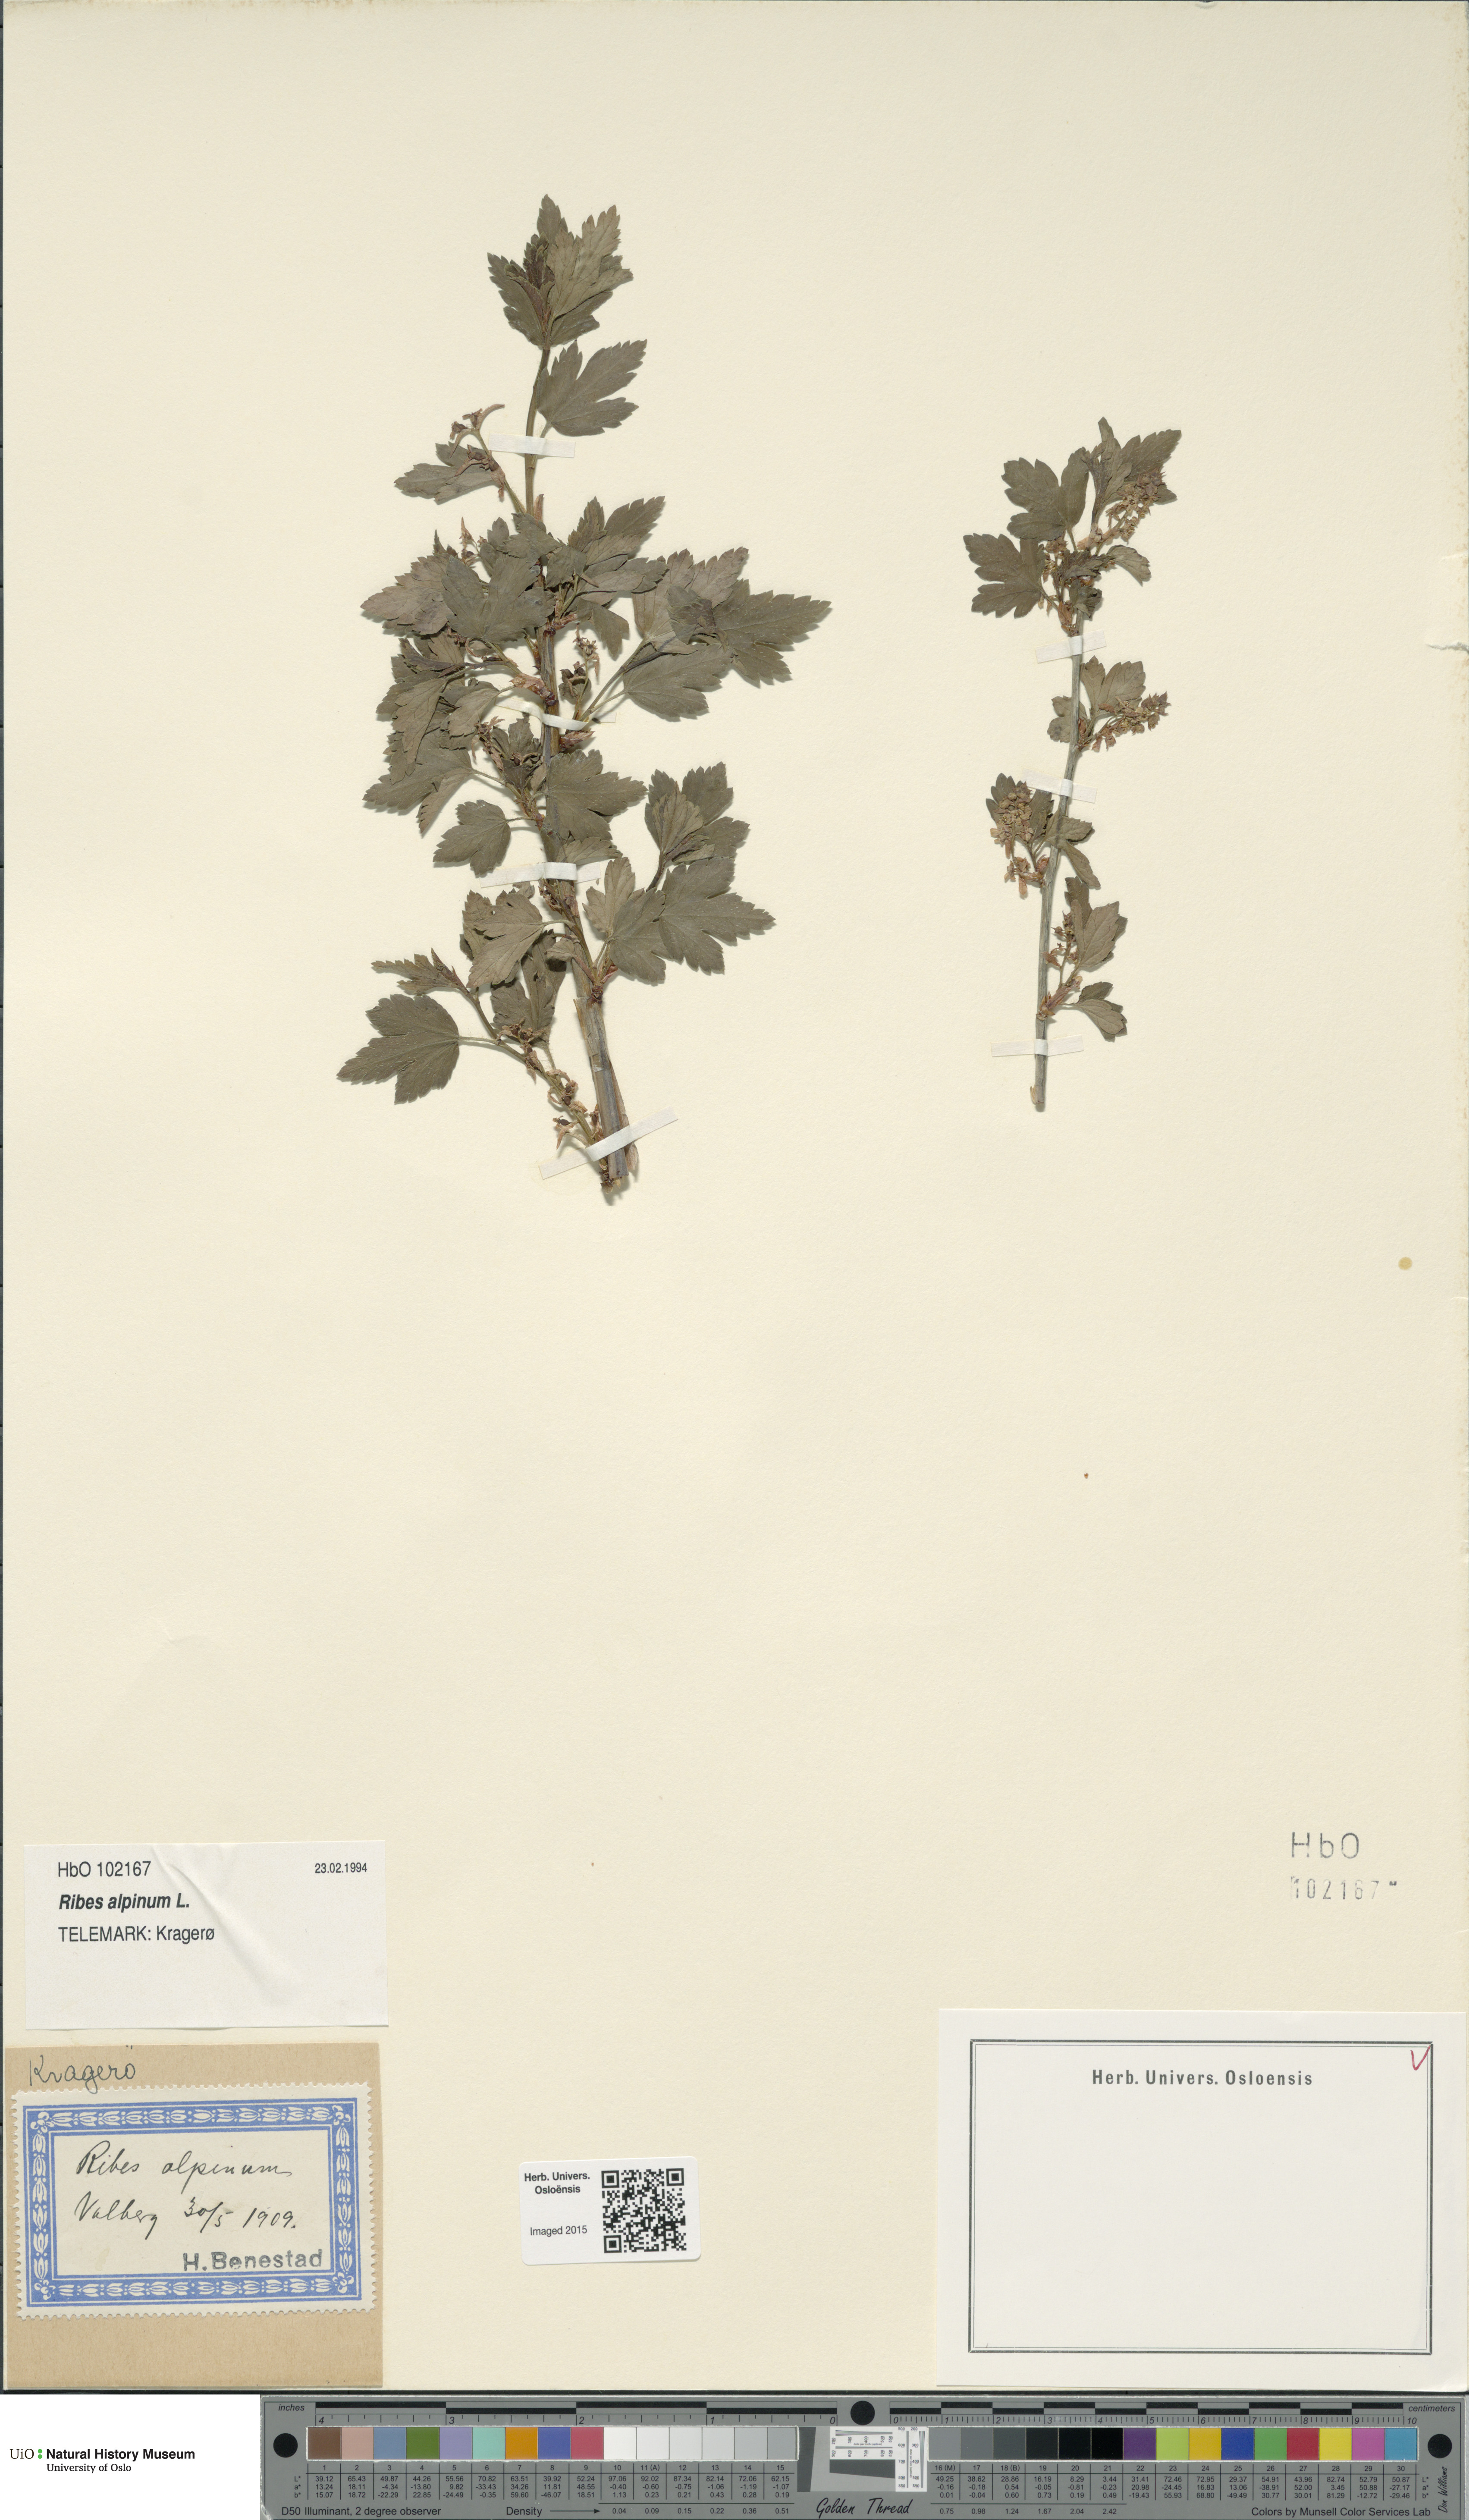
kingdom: Plantae
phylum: Tracheophyta
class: Magnoliopsida
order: Saxifragales
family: Grossulariaceae
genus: Ribes
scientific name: Ribes alpinum
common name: Alpine currant
